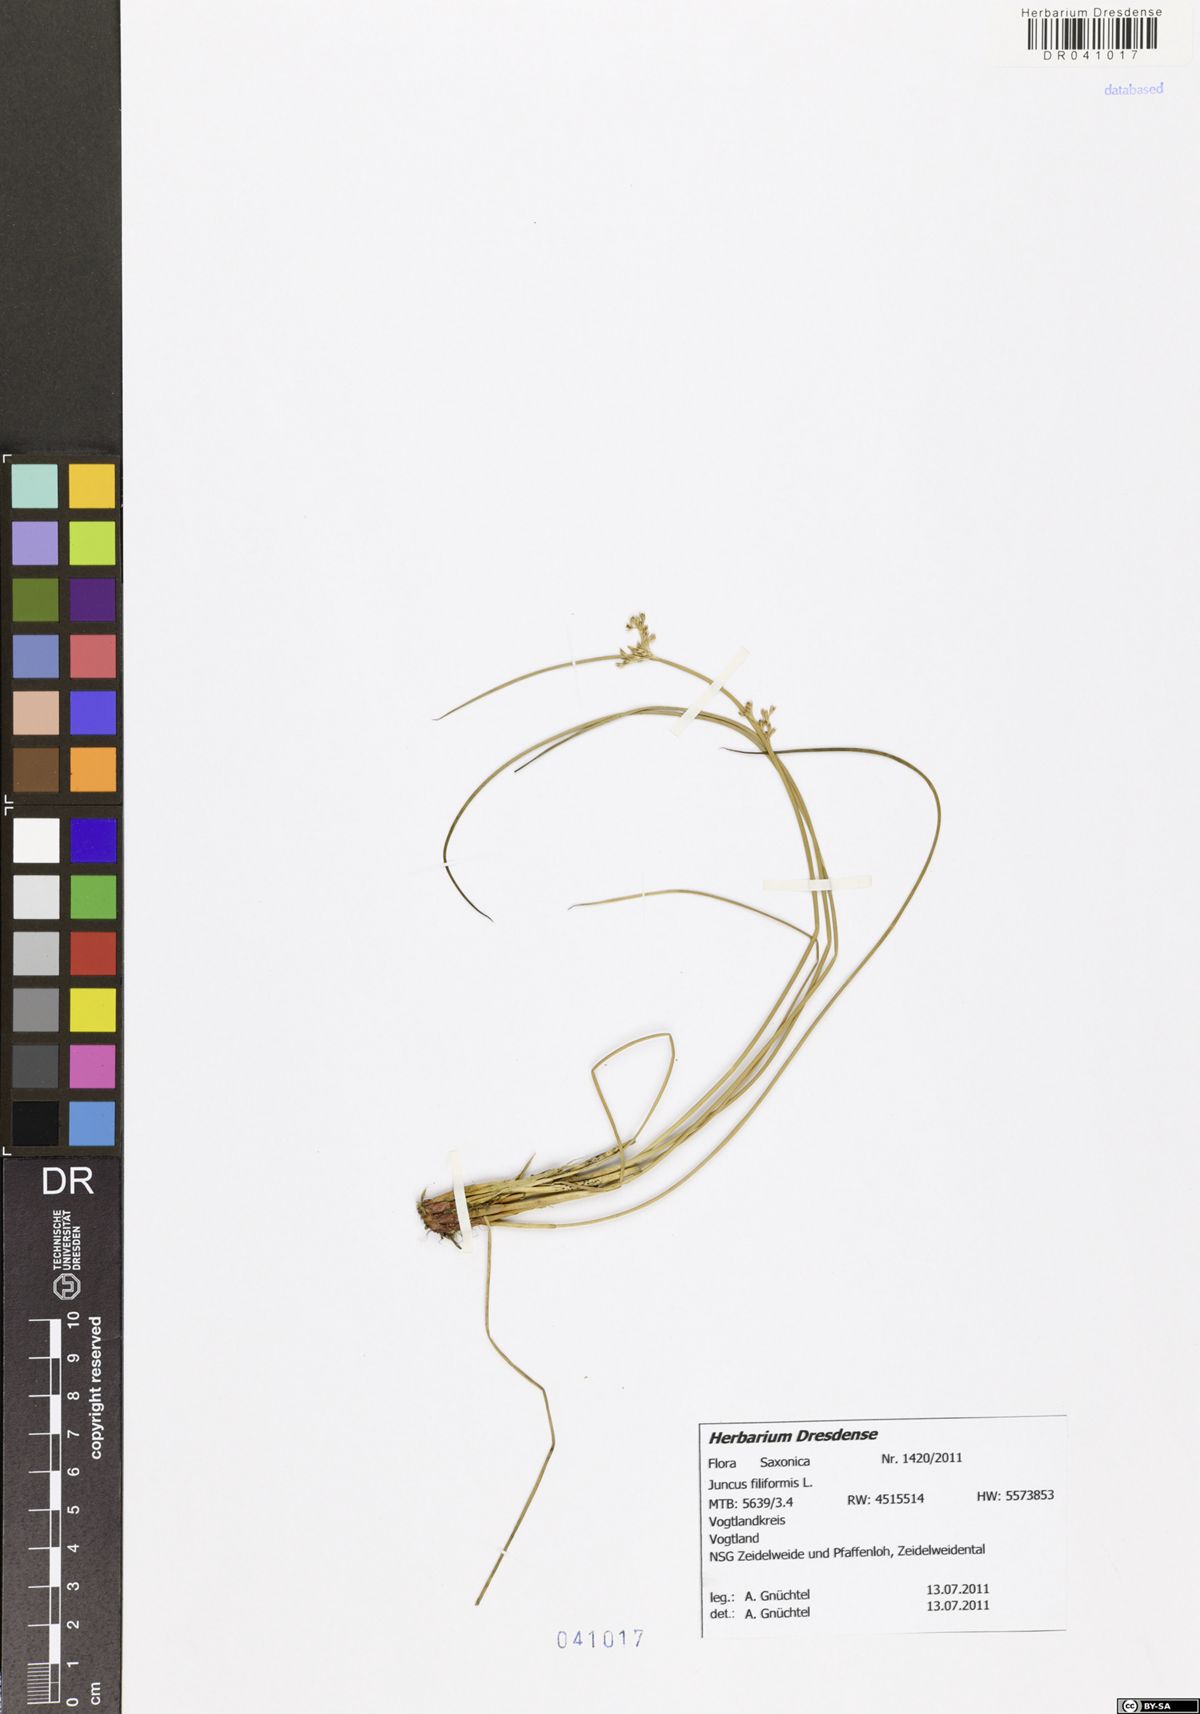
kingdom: Plantae
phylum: Tracheophyta
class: Liliopsida
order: Poales
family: Juncaceae
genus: Juncus
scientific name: Juncus inflexus
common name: Hard rush
